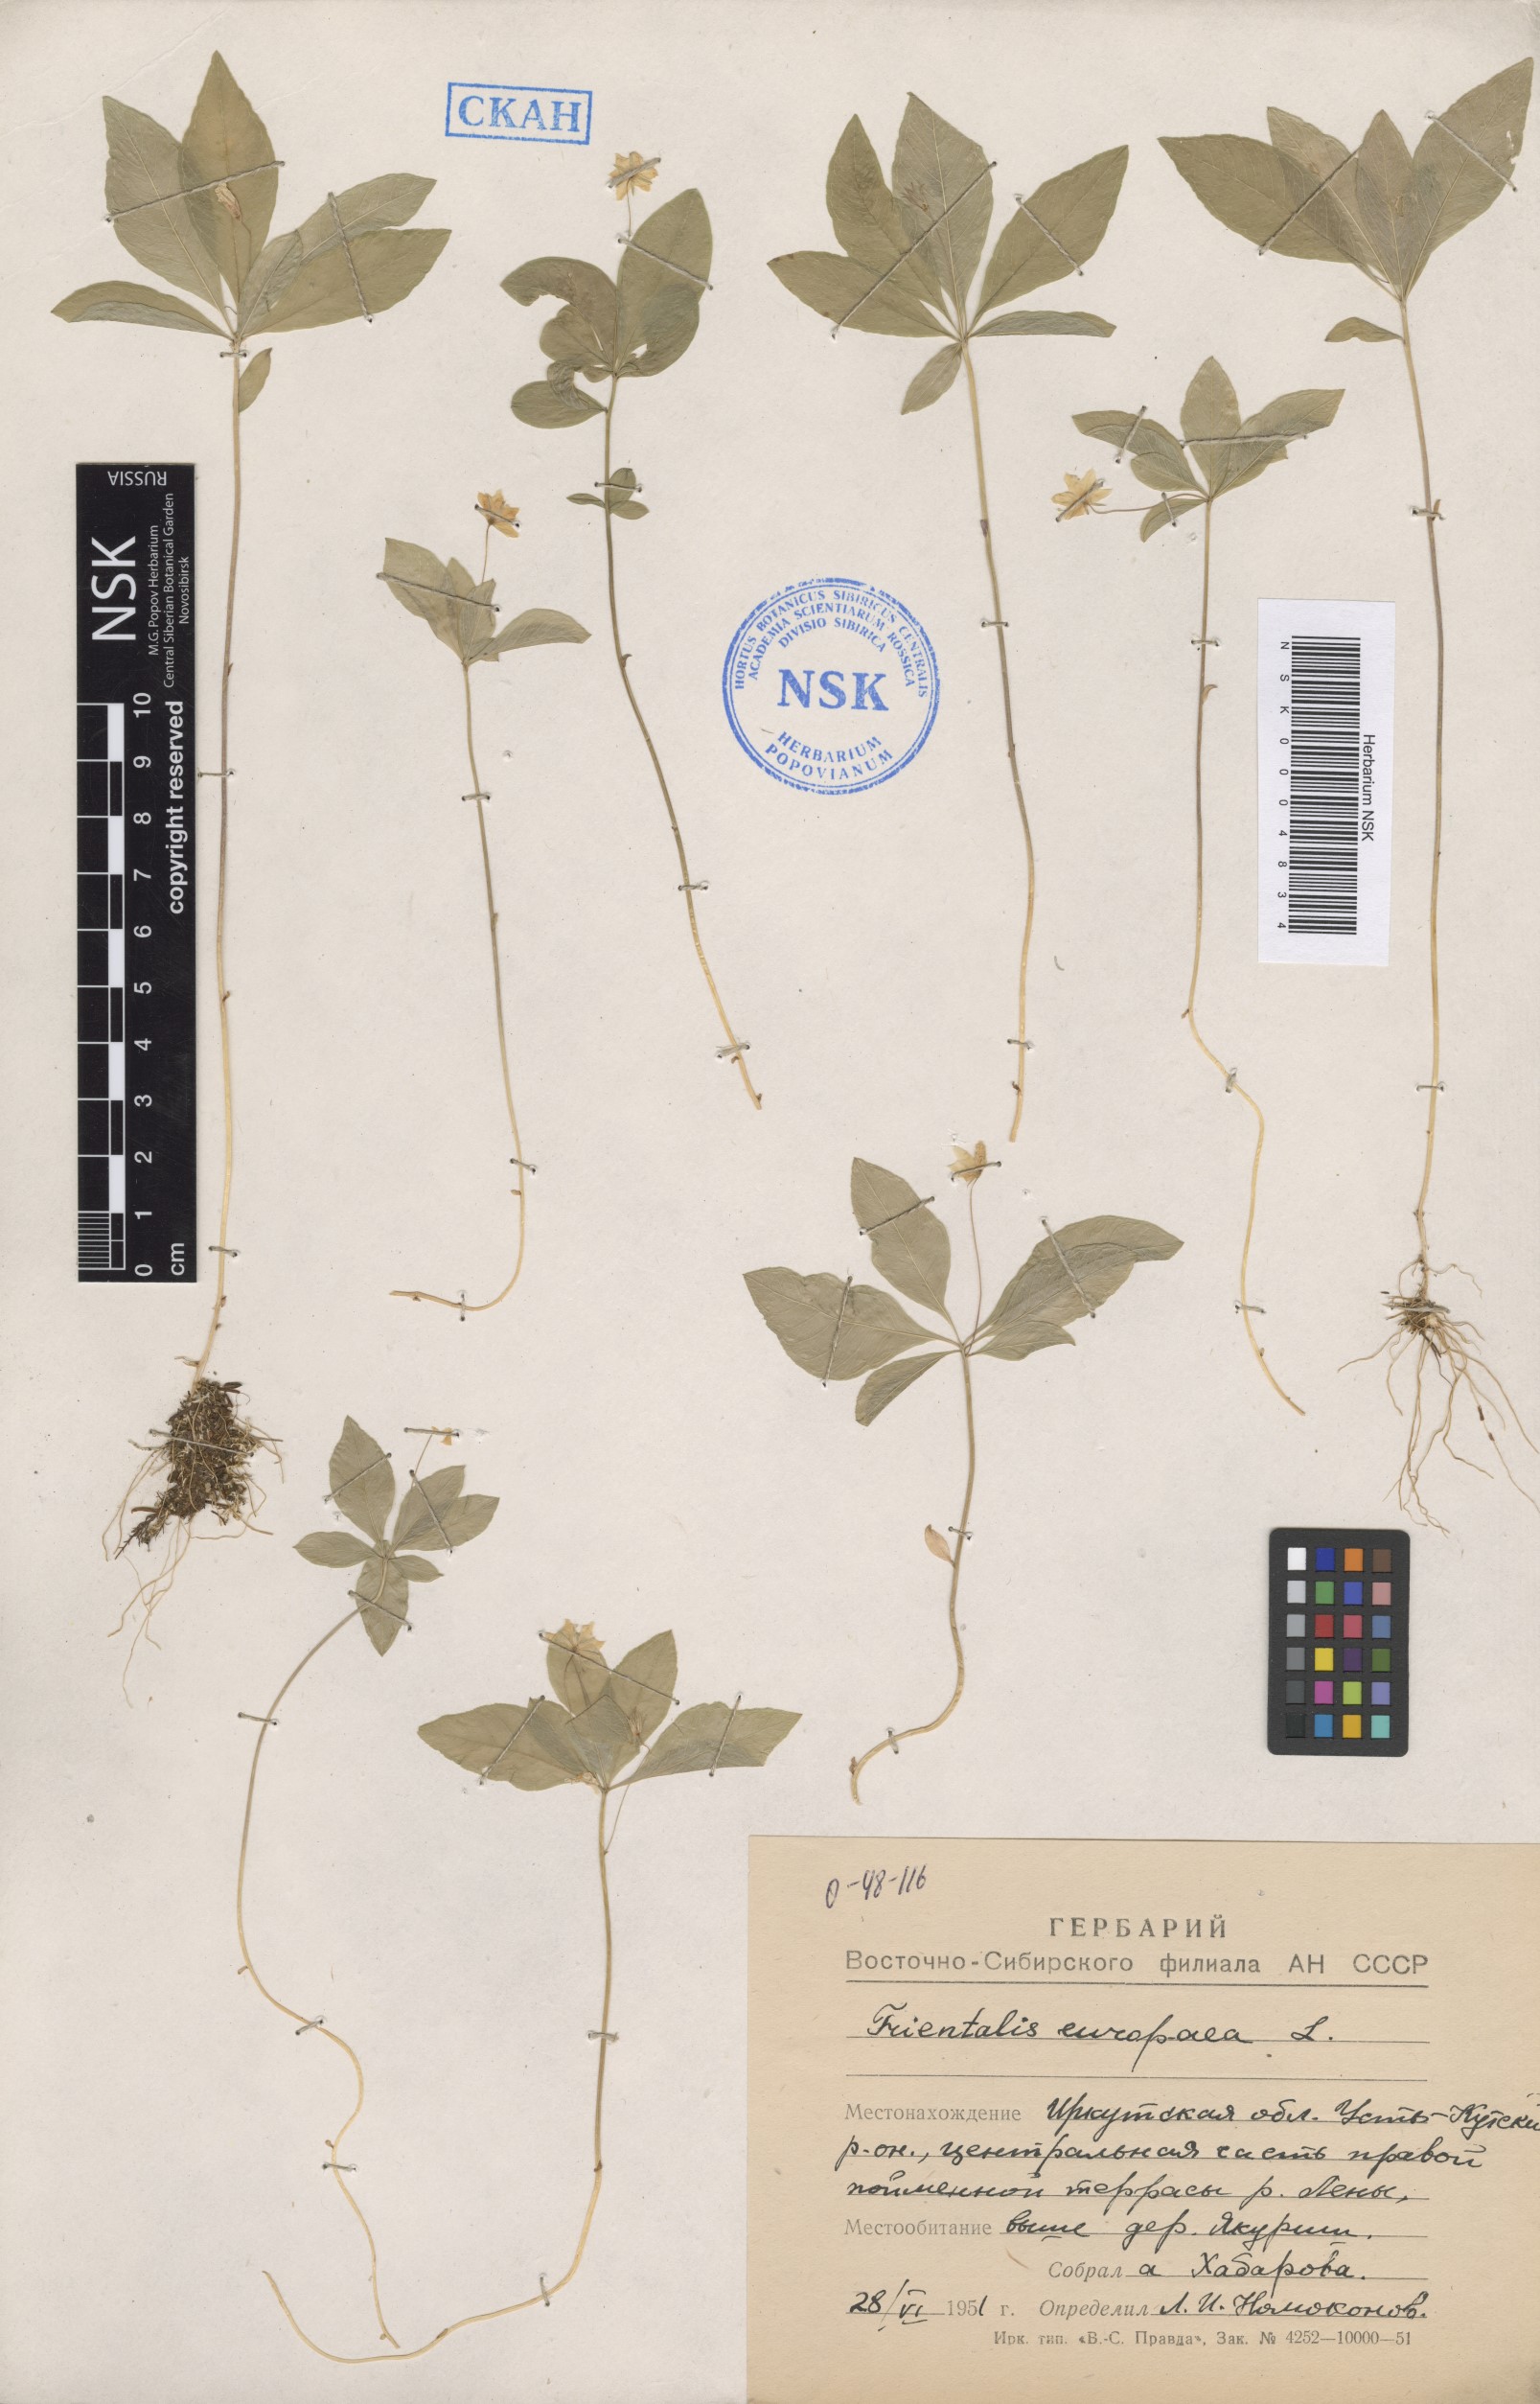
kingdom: Plantae
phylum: Tracheophyta
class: Magnoliopsida
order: Ericales
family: Primulaceae
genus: Lysimachia
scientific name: Lysimachia europaea
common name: Arctic starflower
